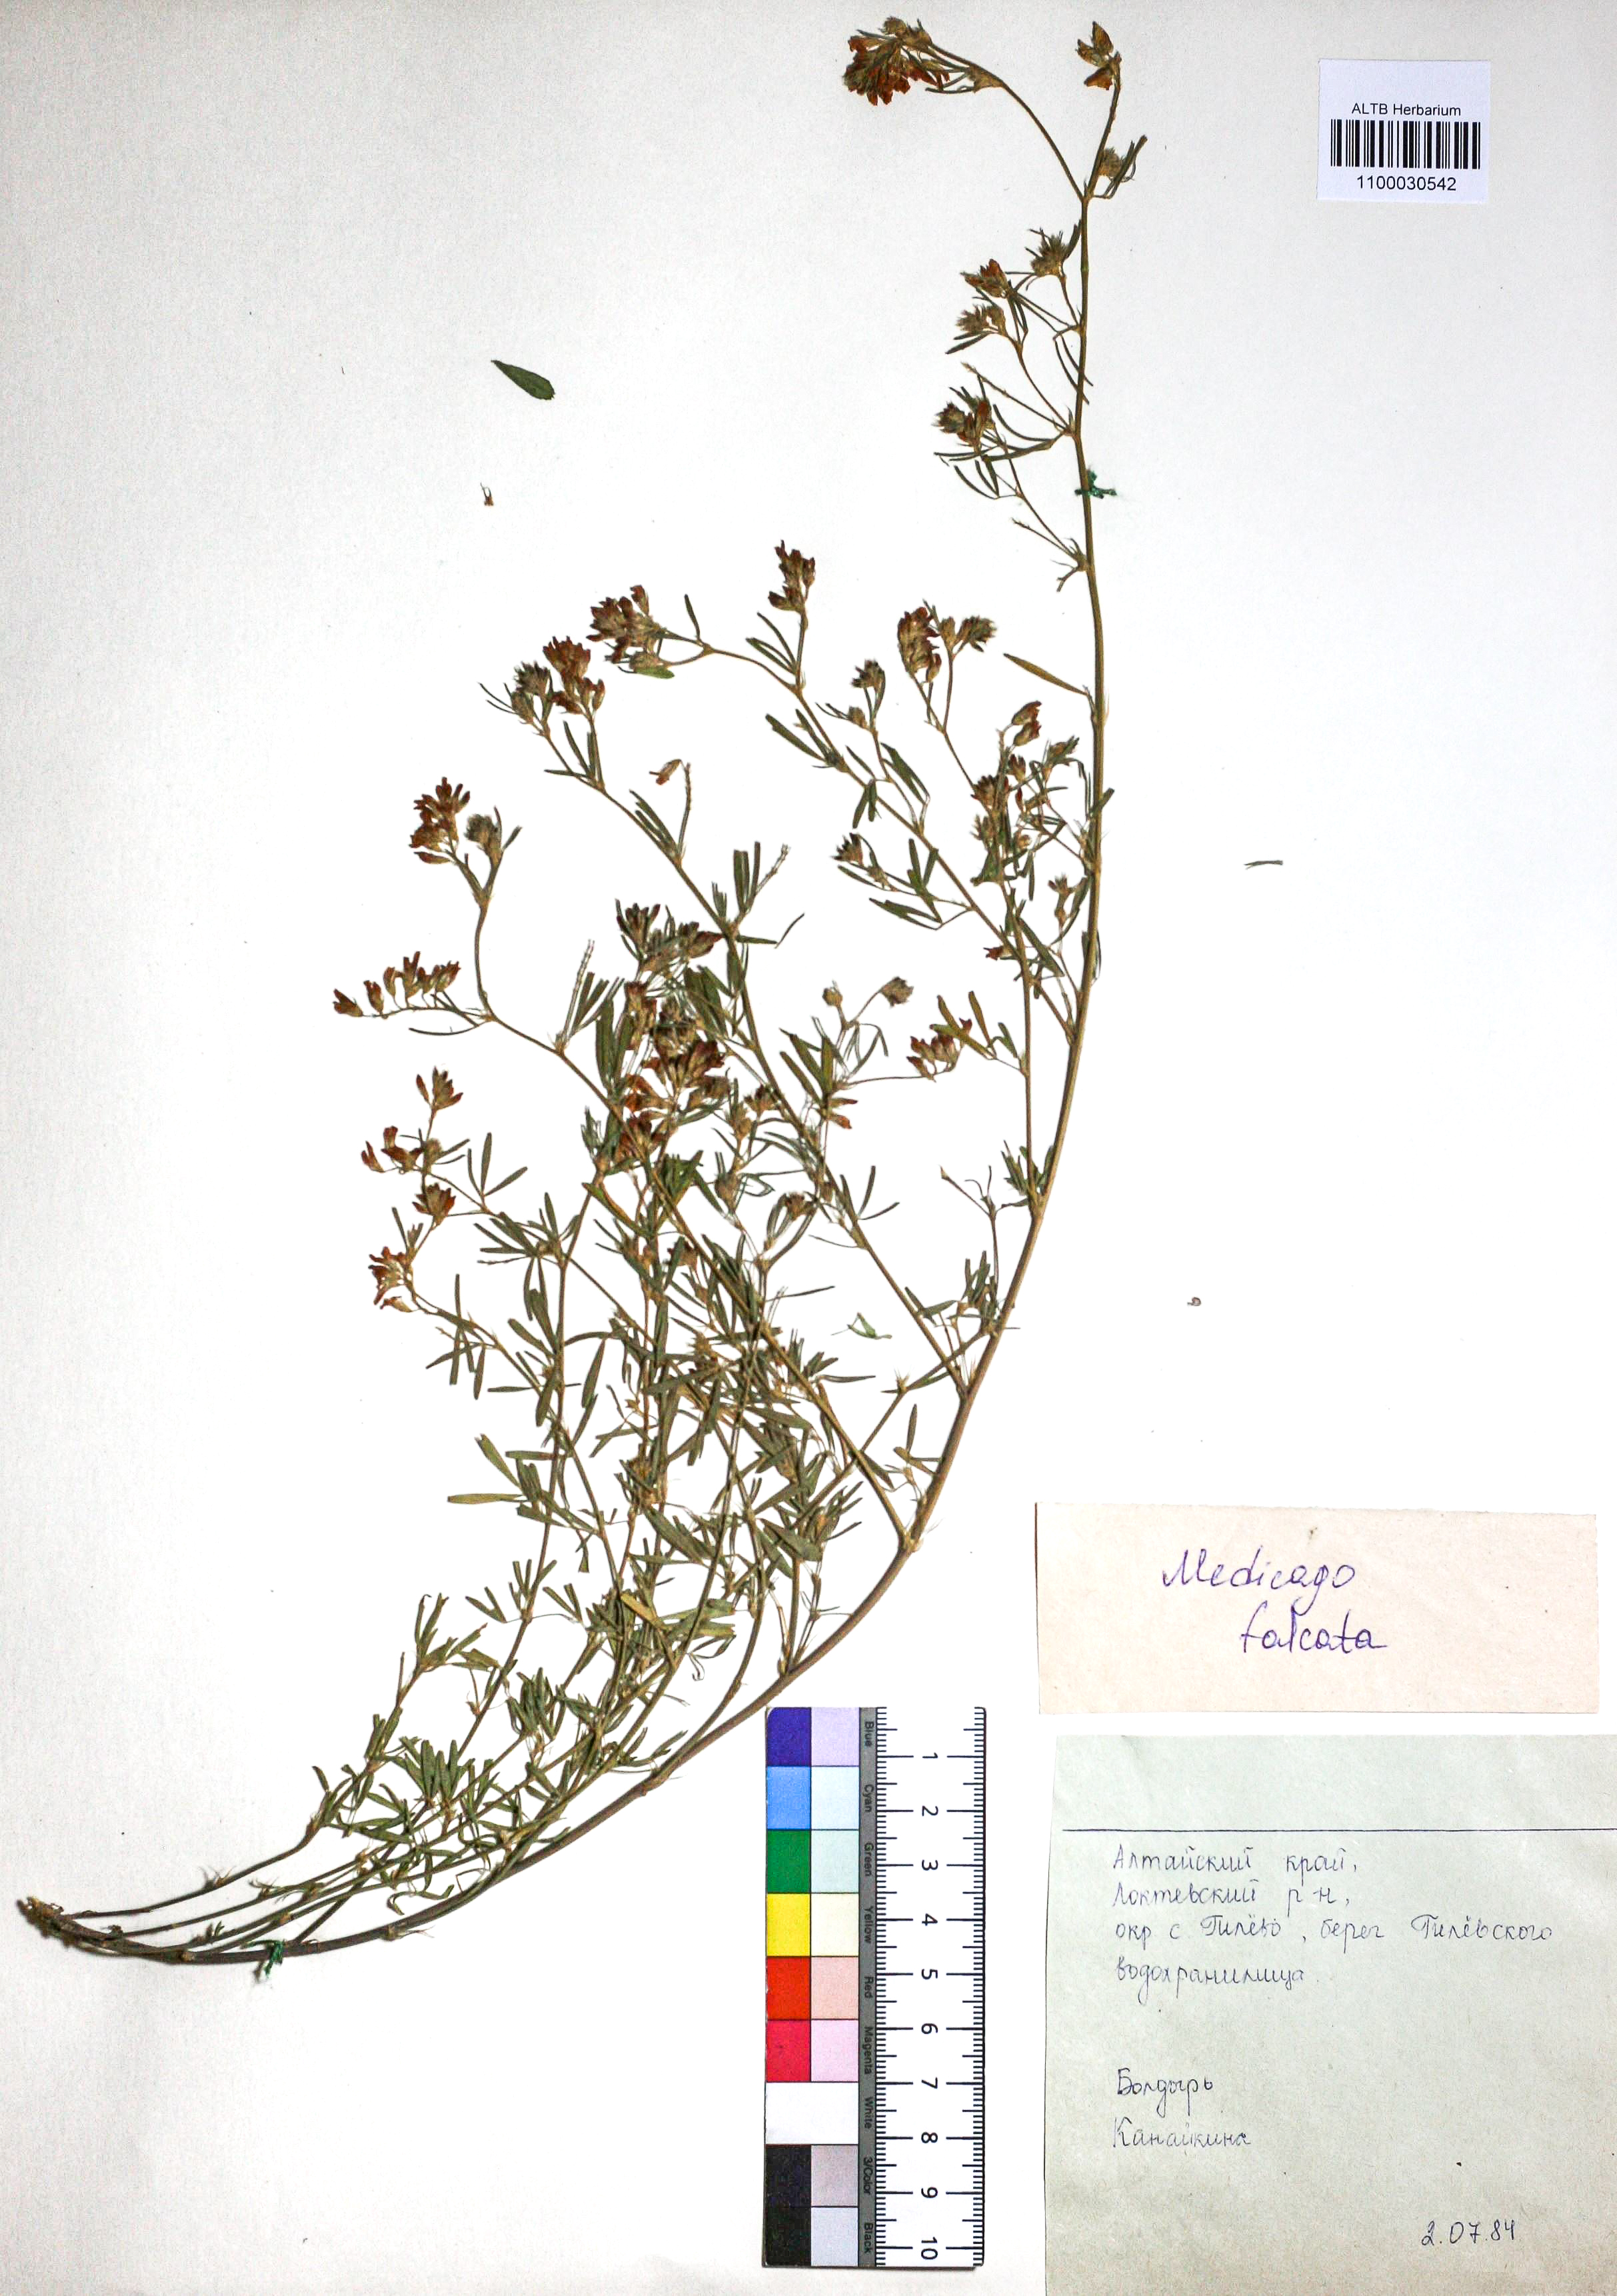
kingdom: Plantae
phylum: Tracheophyta
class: Magnoliopsida
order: Fabales
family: Fabaceae
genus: Medicago
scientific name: Medicago falcata
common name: Sickle medick
